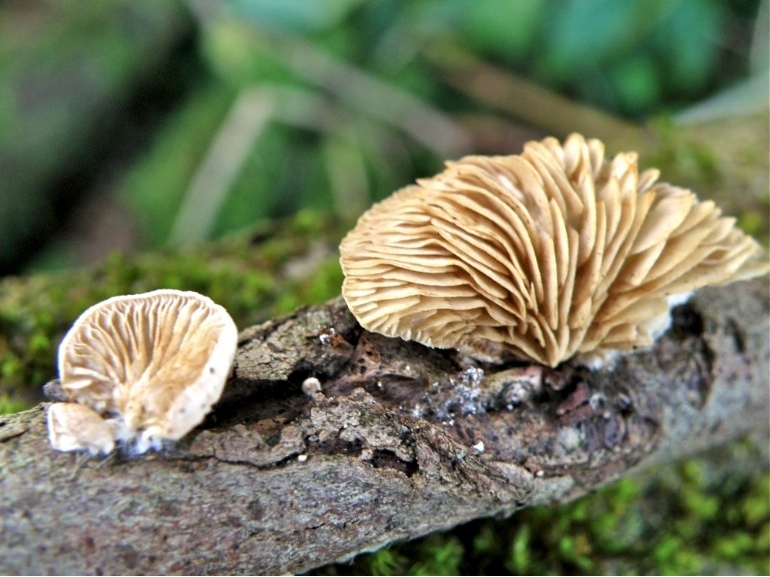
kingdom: Fungi
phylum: Basidiomycota
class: Agaricomycetes
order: Agaricales
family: Crepidotaceae
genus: Crepidotus
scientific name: Crepidotus caspari
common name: Lundells muslingesvamp
